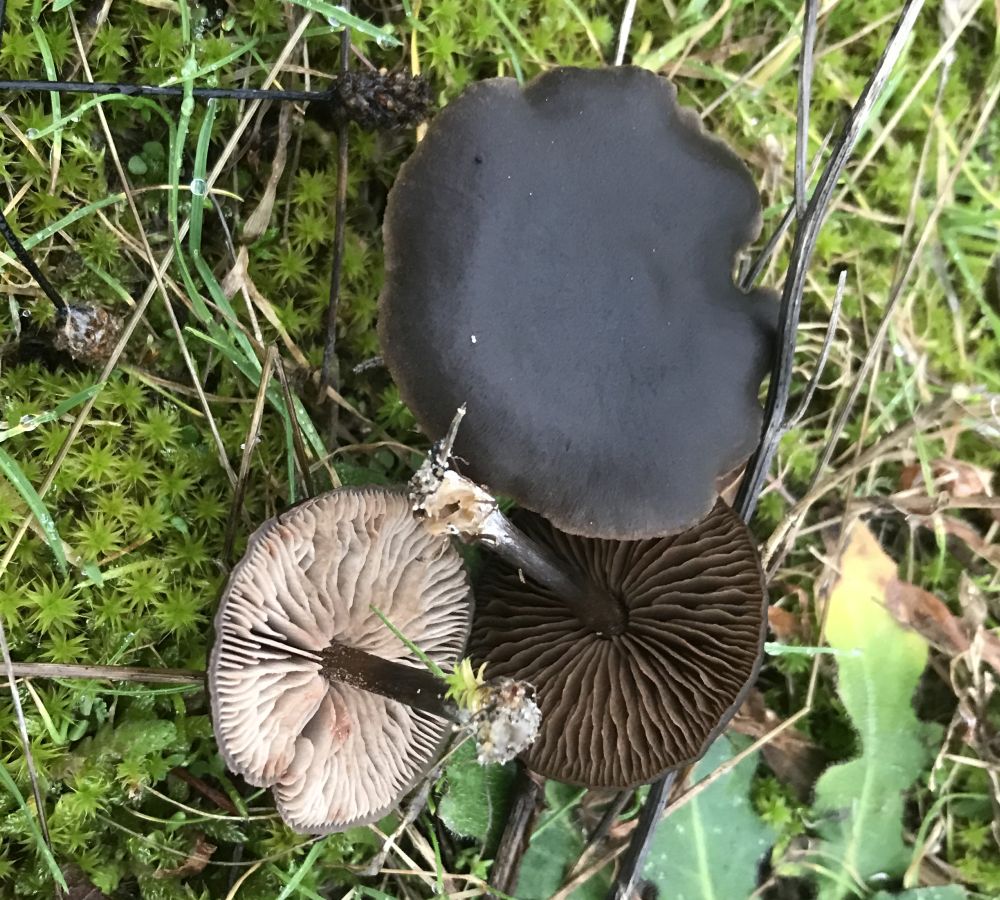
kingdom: Fungi
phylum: Basidiomycota
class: Agaricomycetes
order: Agaricales
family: Entolomataceae
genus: Entoloma
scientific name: Entoloma vindobonense
